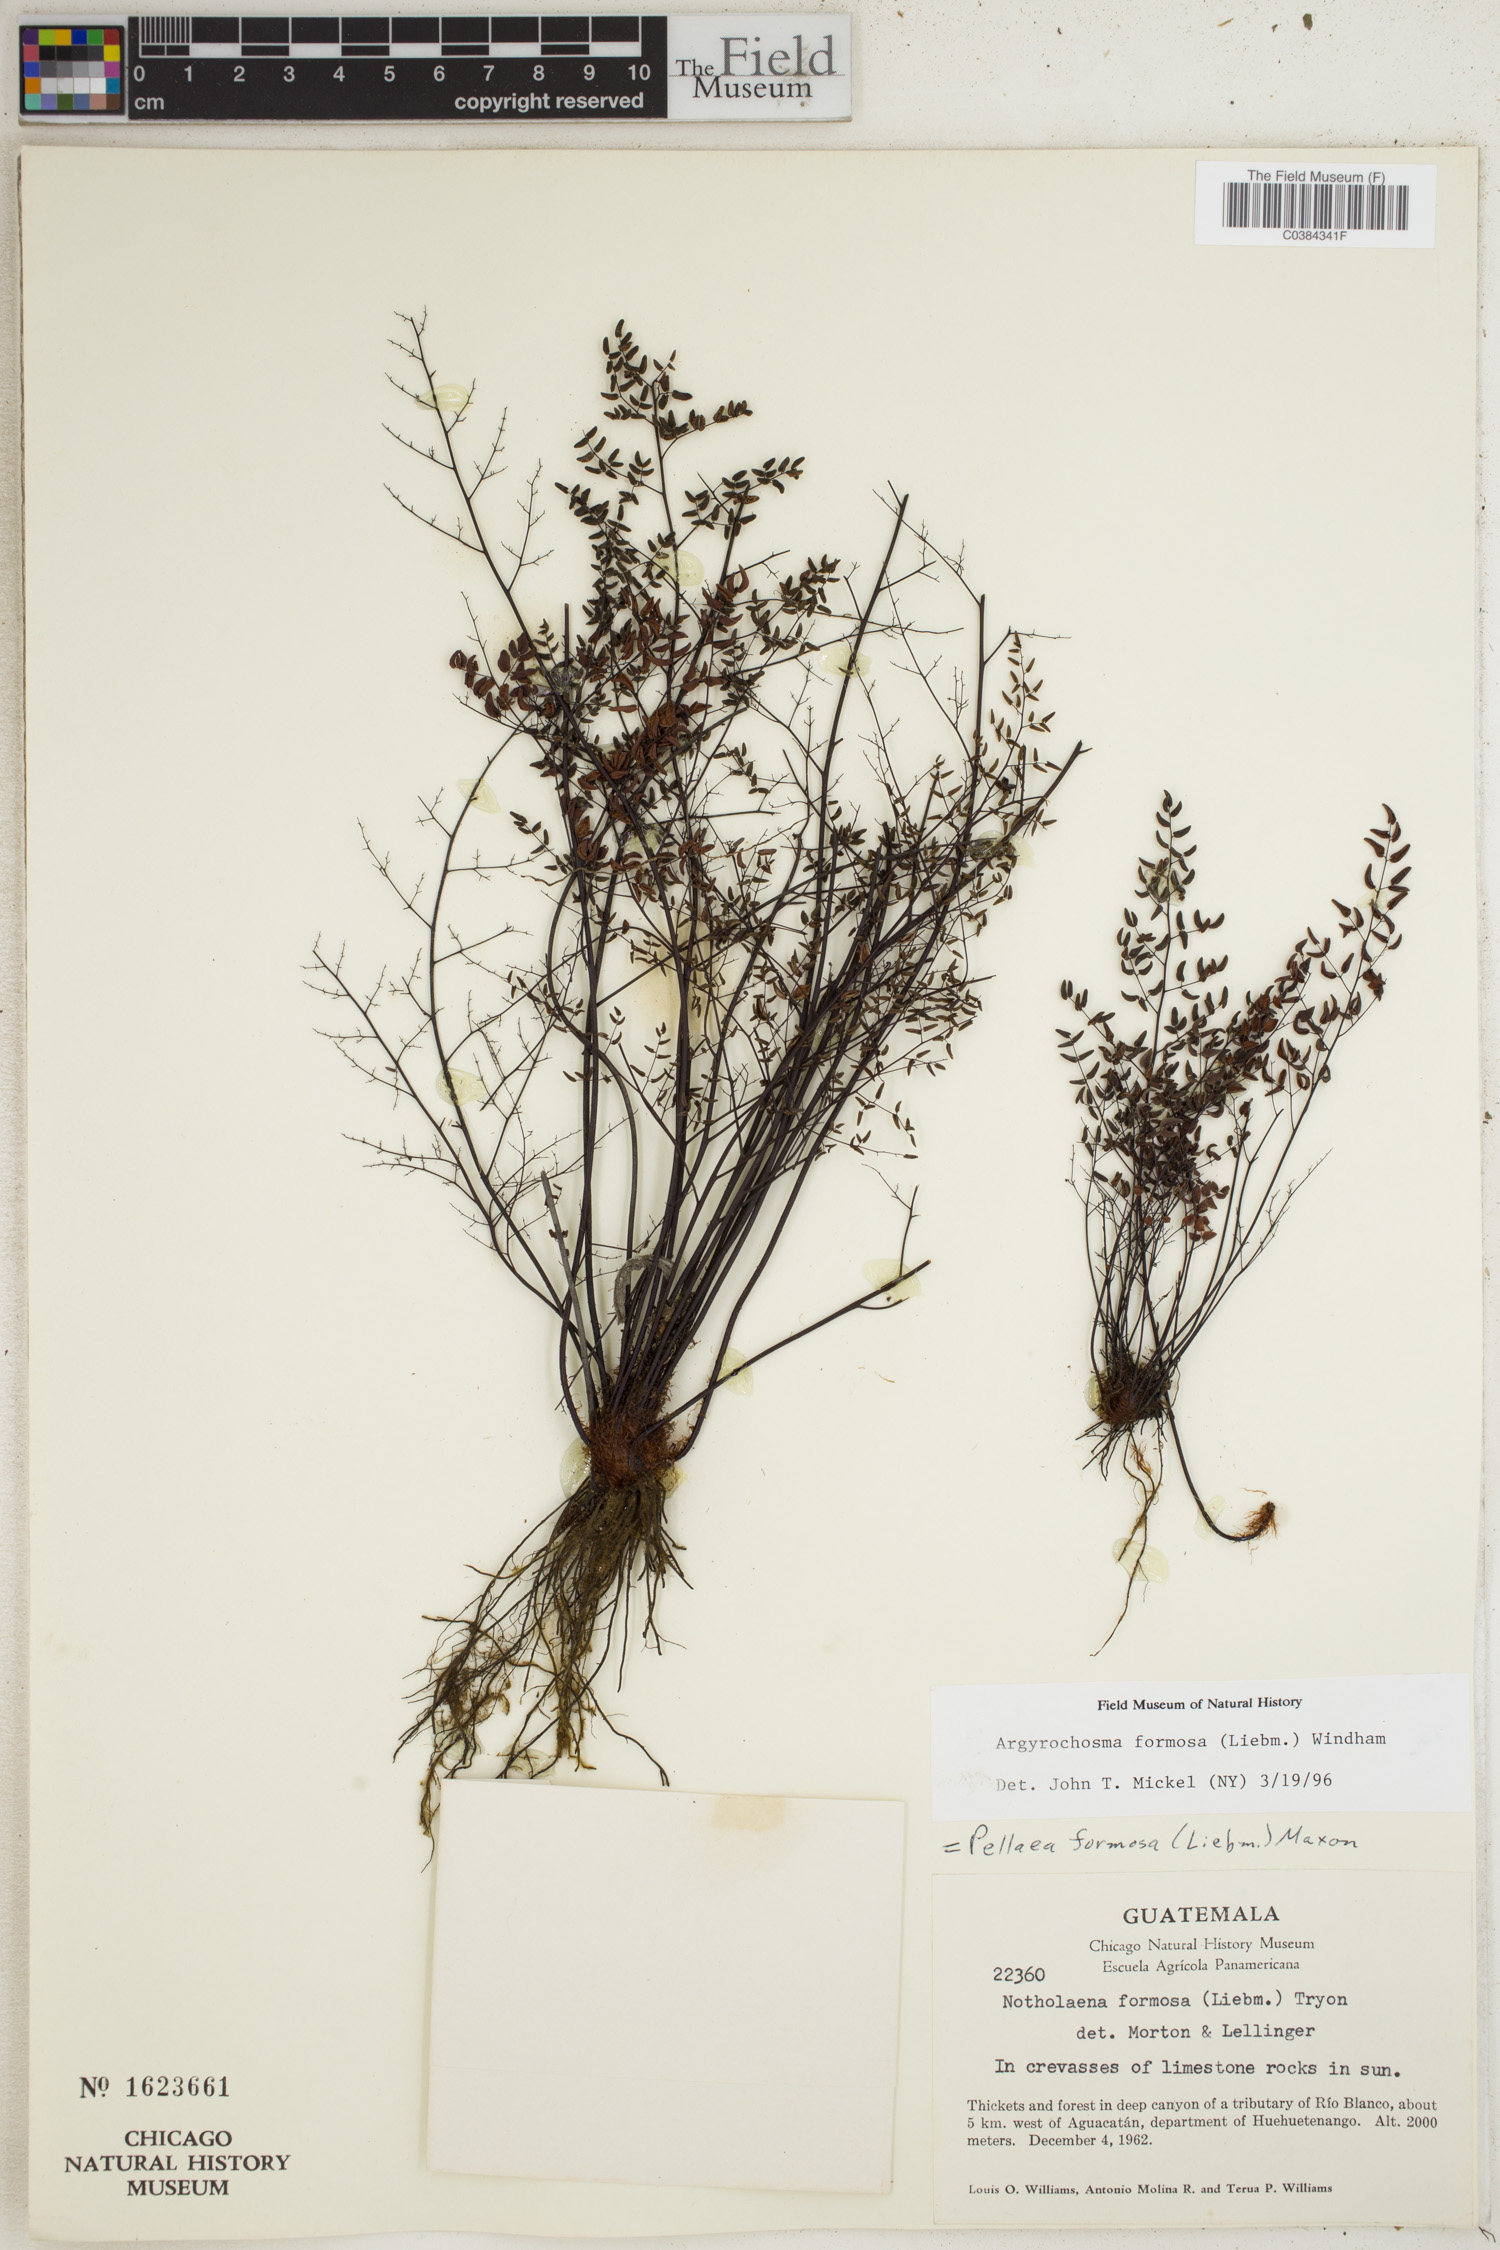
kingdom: Plantae
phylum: Tracheophyta
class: Polypodiopsida
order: Polypodiales
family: Pteridaceae
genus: Argyrochosma
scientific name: Argyrochosma formosa
